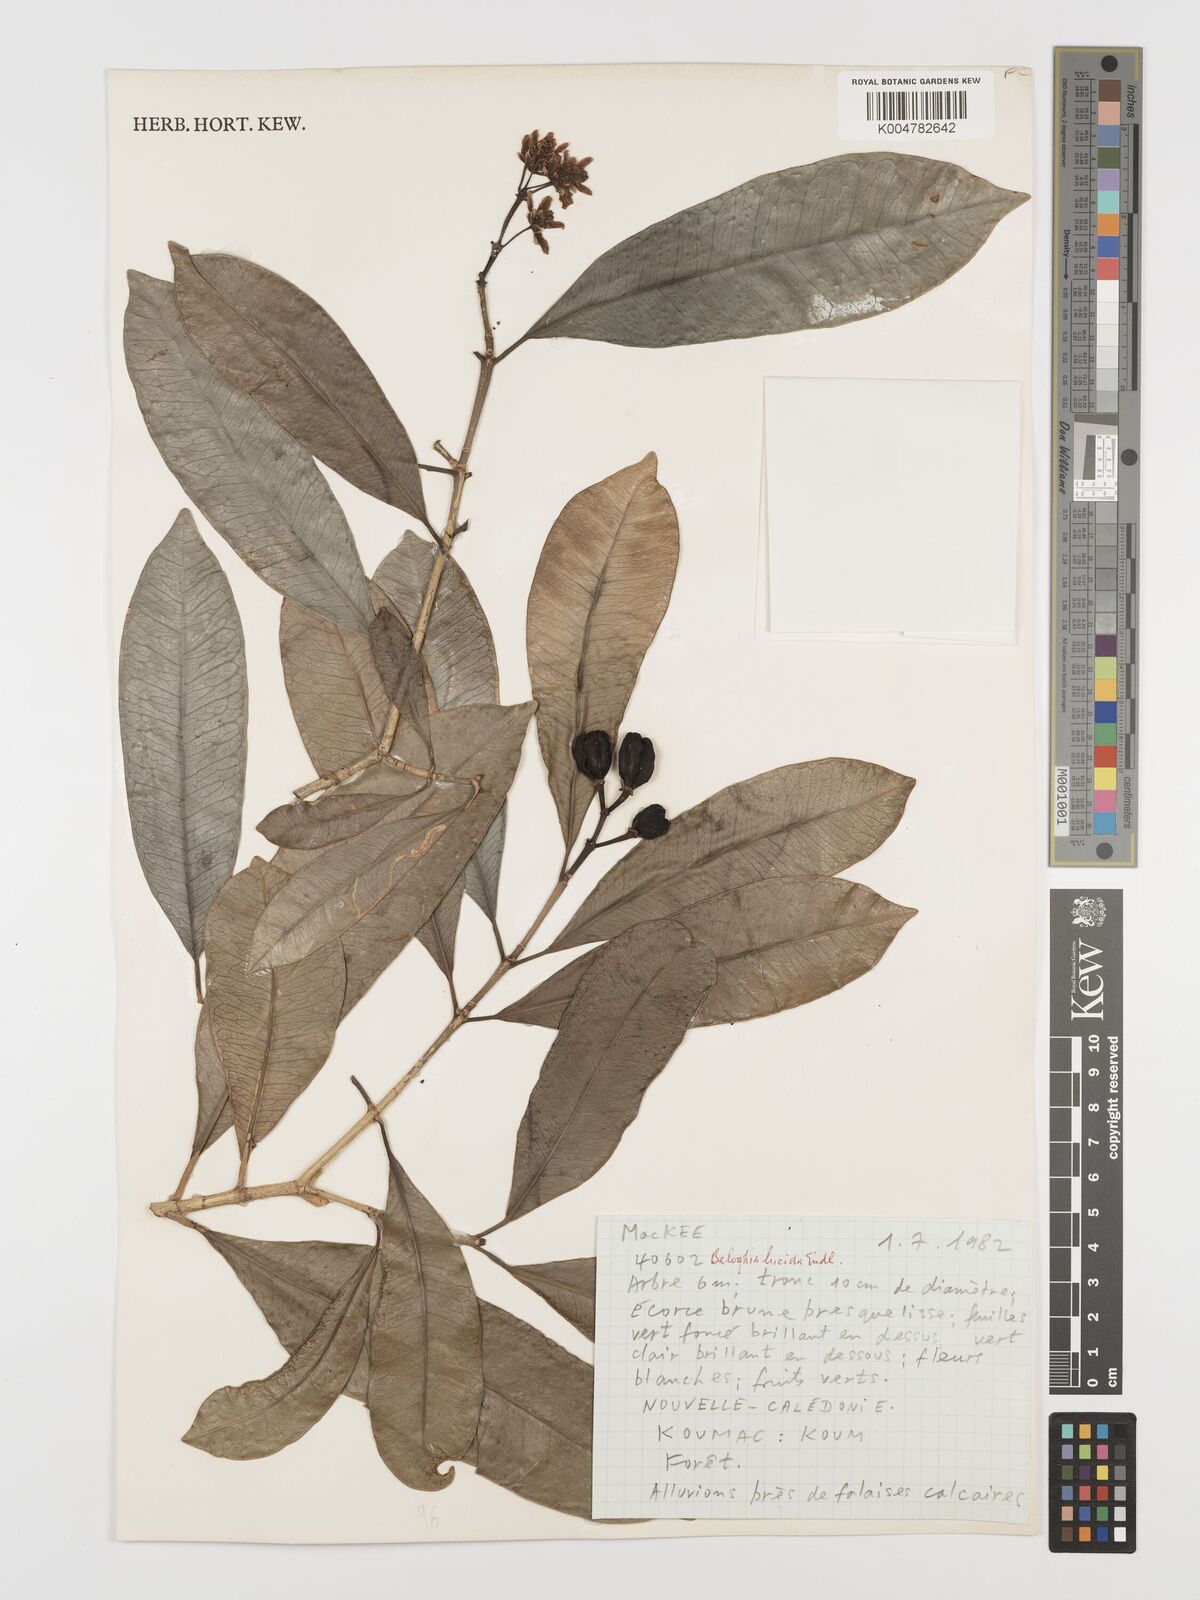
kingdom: Plantae
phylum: Tracheophyta
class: Magnoliopsida
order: Malpighiales
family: Euphorbiaceae
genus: Baloghia
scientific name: Baloghia inophylla
